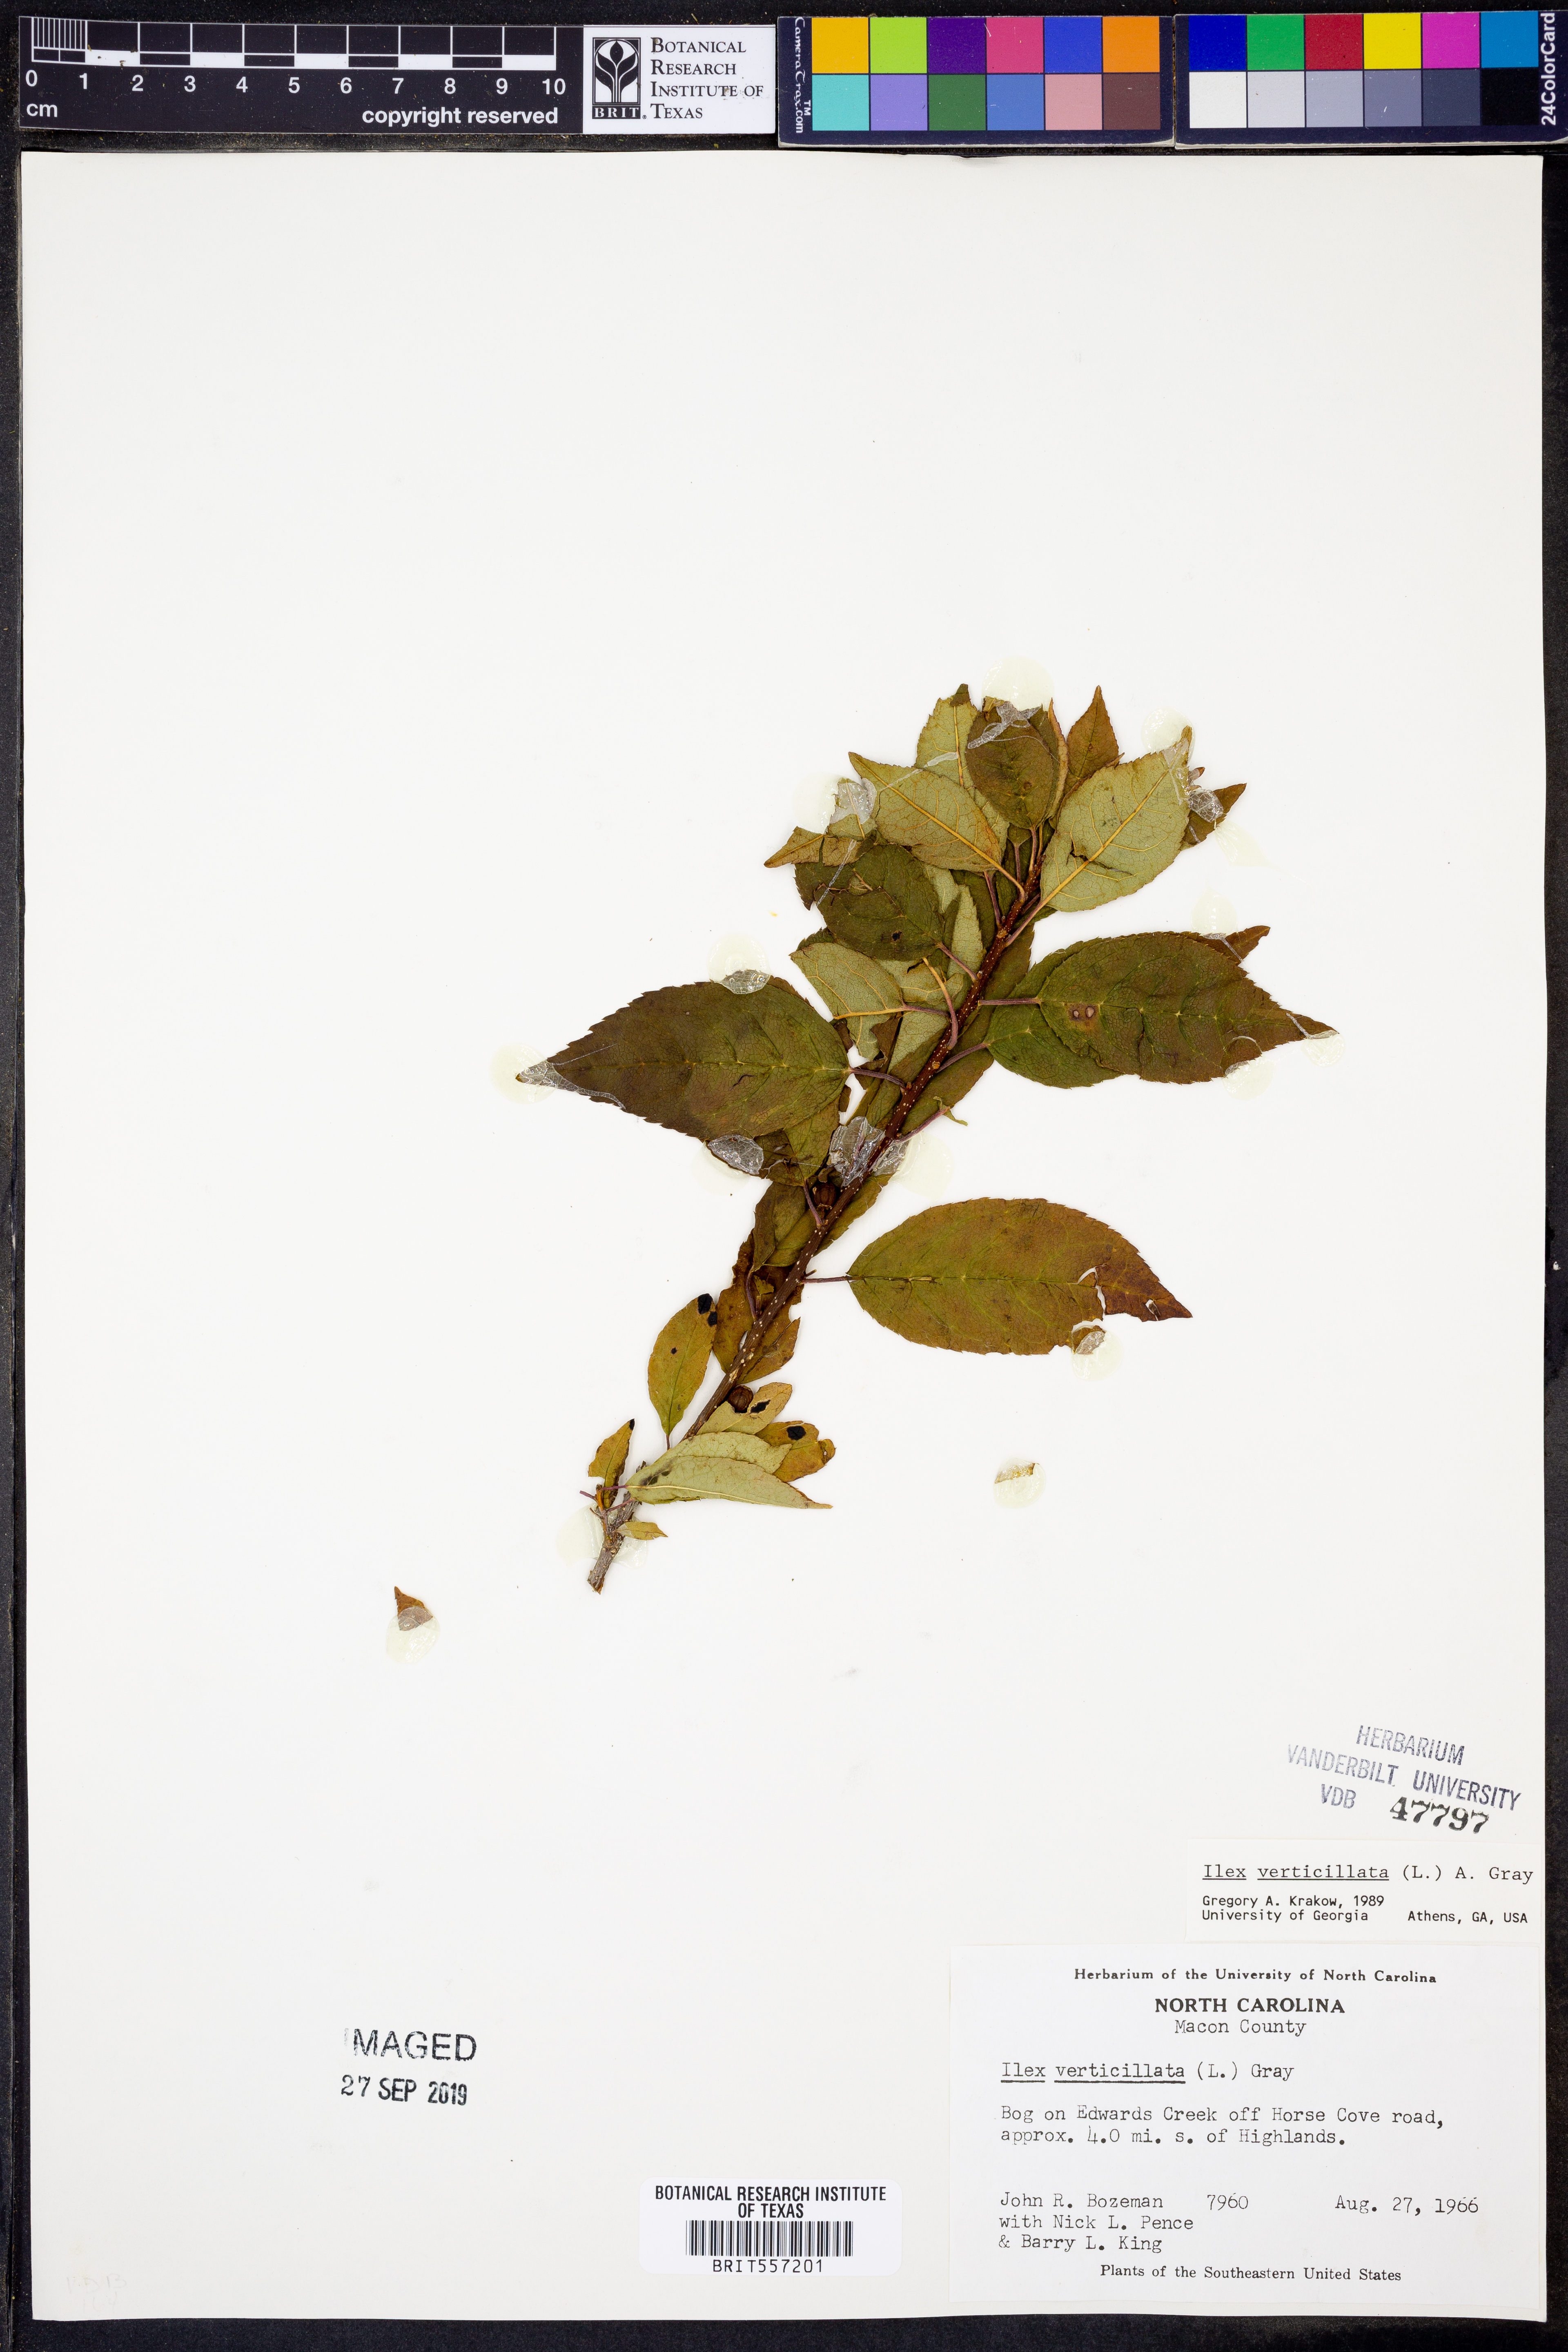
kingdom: Plantae
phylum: Tracheophyta
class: Magnoliopsida
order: Aquifoliales
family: Aquifoliaceae
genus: Ilex
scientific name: Ilex verticillata
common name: Virginia winterberry
